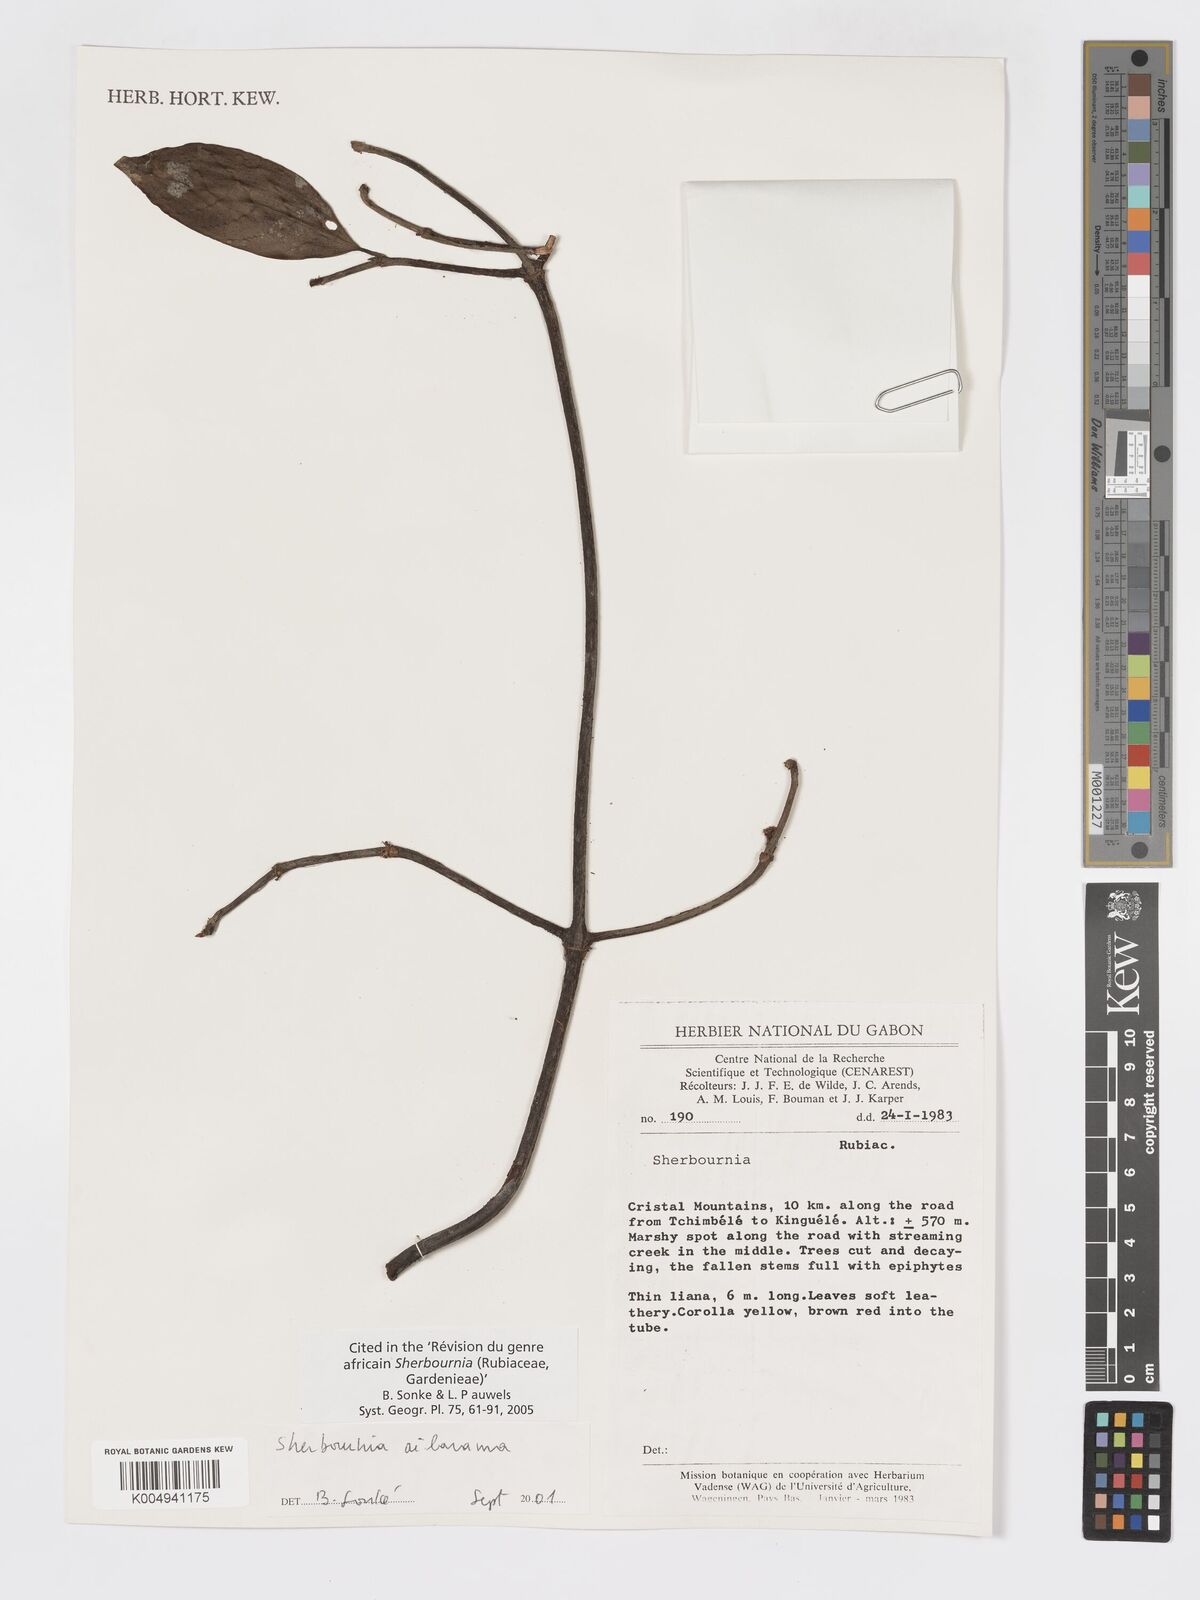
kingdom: Plantae
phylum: Tracheophyta
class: Magnoliopsida
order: Gentianales
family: Rubiaceae
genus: Sherbournia
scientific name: Sherbournia ailarama
